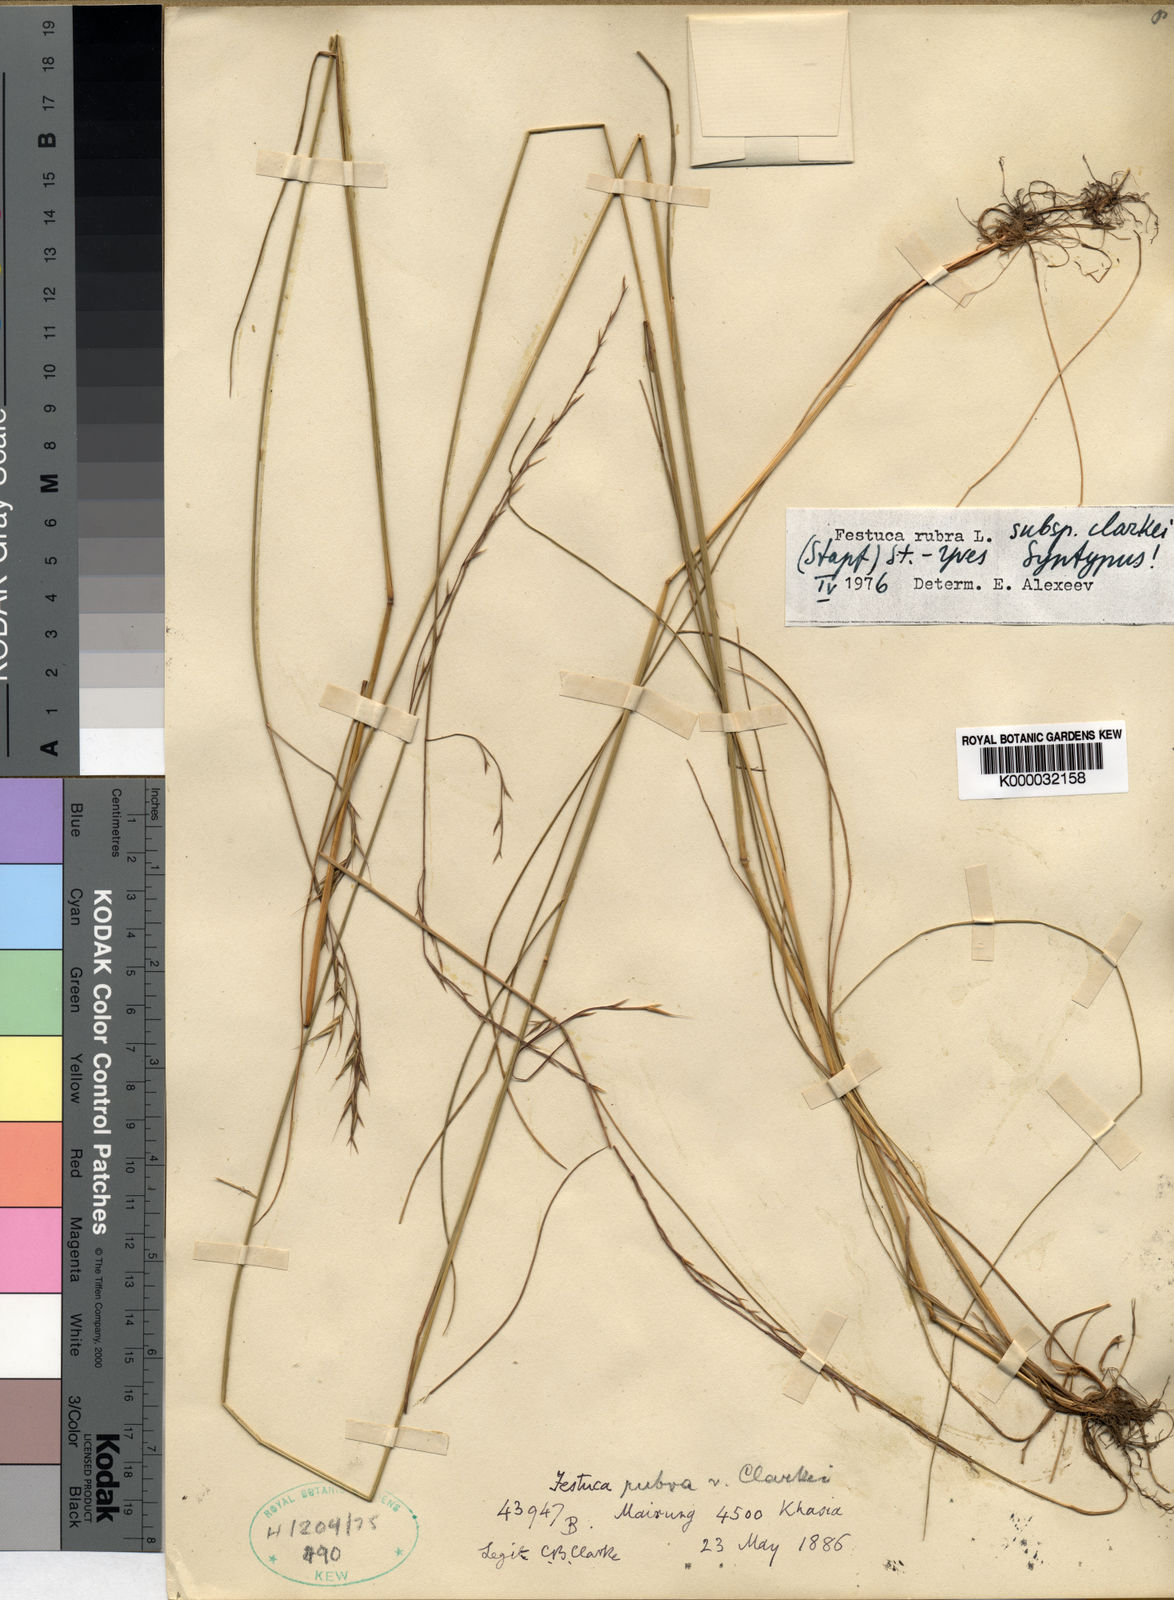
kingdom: Plantae
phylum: Tracheophyta
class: Liliopsida
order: Poales
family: Poaceae
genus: Festuca
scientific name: Festuca rubra
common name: Red fescue
